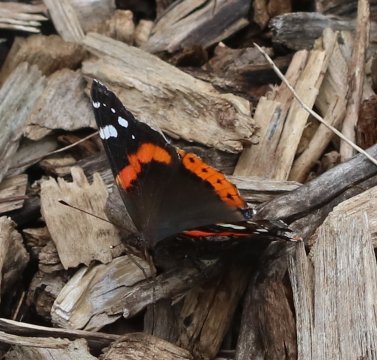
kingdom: Animalia
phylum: Arthropoda
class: Insecta
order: Lepidoptera
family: Nymphalidae
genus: Vanessa
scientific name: Vanessa atalanta
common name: Red Admiral
